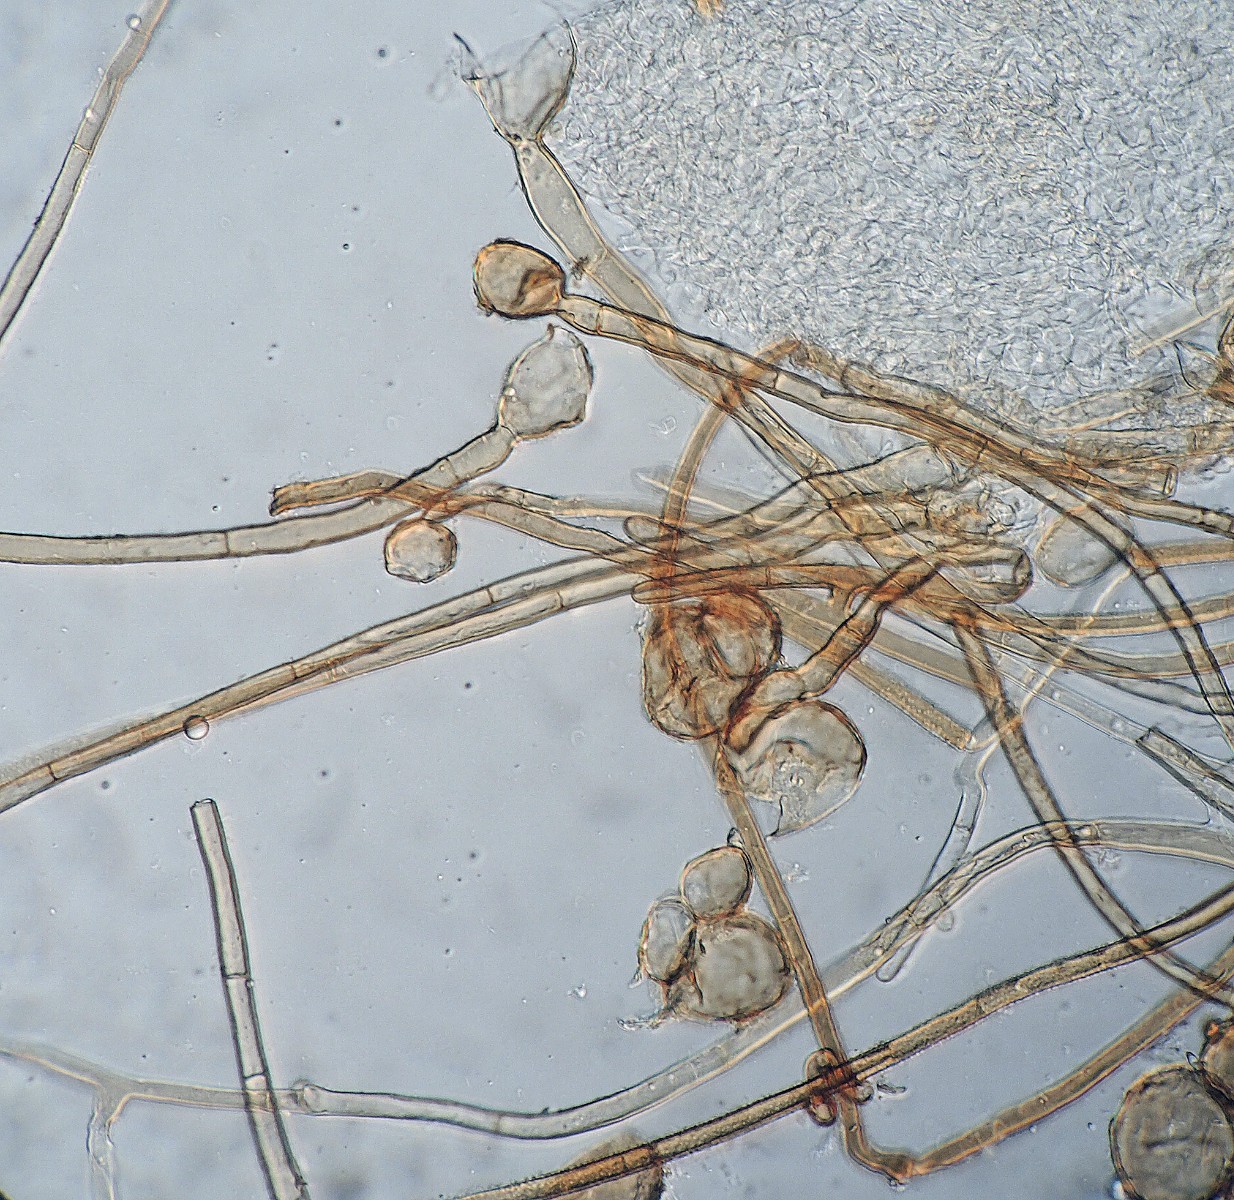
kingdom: Fungi
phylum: Ascomycota
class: Pezizomycetes
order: Pezizales
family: Pyronemataceae
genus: Geopora
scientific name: Geopora tenuis
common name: frit jordbæger
